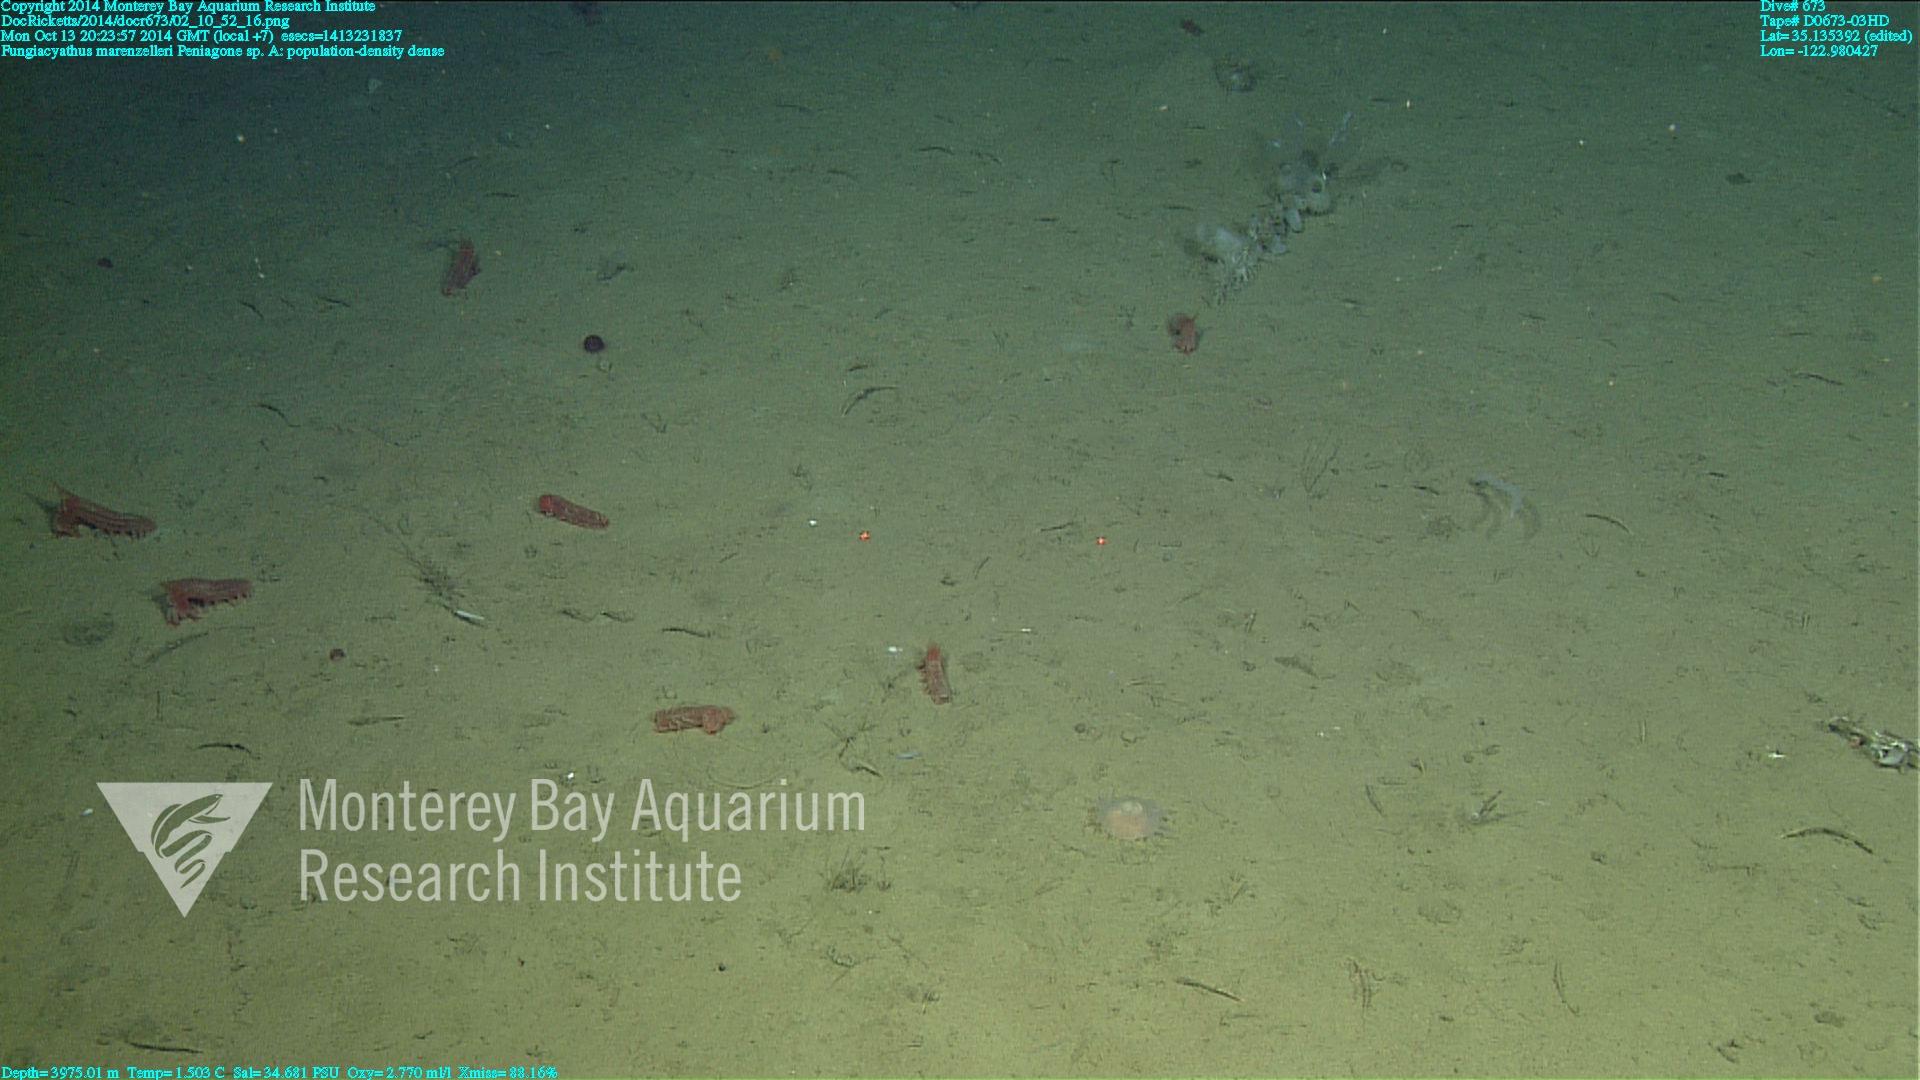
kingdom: Animalia
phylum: Cnidaria
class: Anthozoa
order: Scleractinia
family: Fungiacyathidae
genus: Fungiacyathus
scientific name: Fungiacyathus marenzelleri
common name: Marenzeller's stony coral
